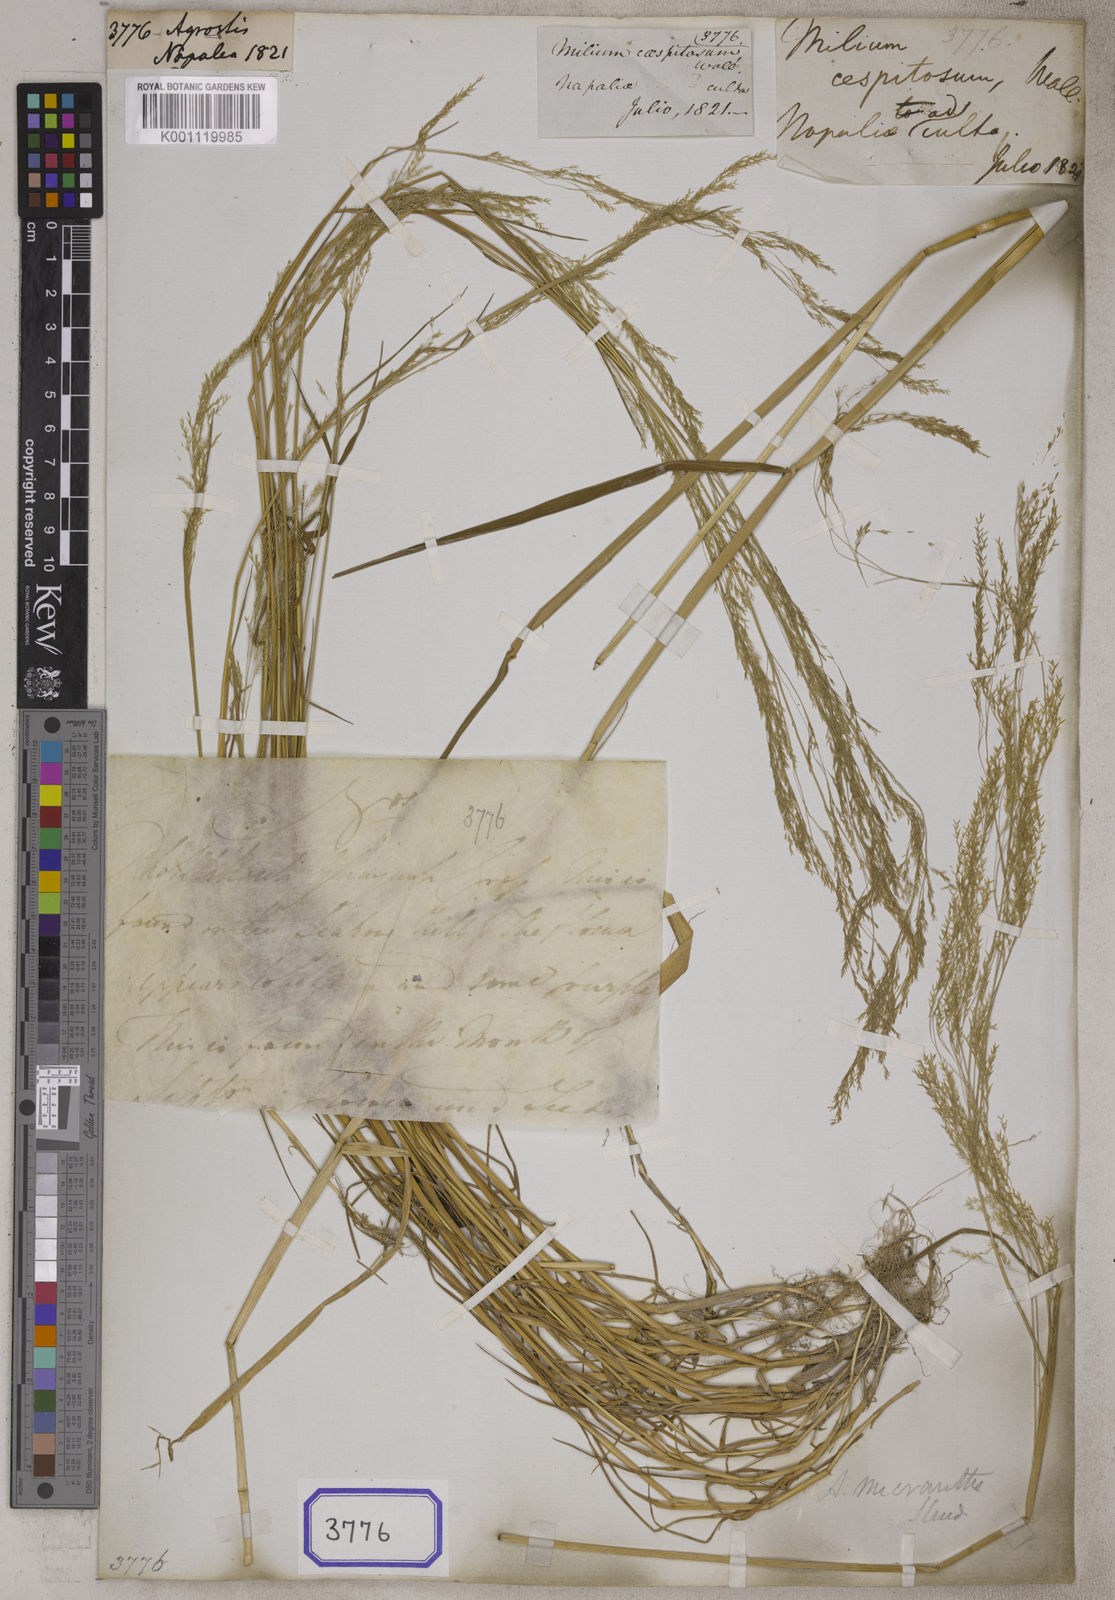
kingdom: Plantae
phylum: Tracheophyta
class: Liliopsida
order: Poales
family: Poaceae
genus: Agrostis
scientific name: Agrostis
